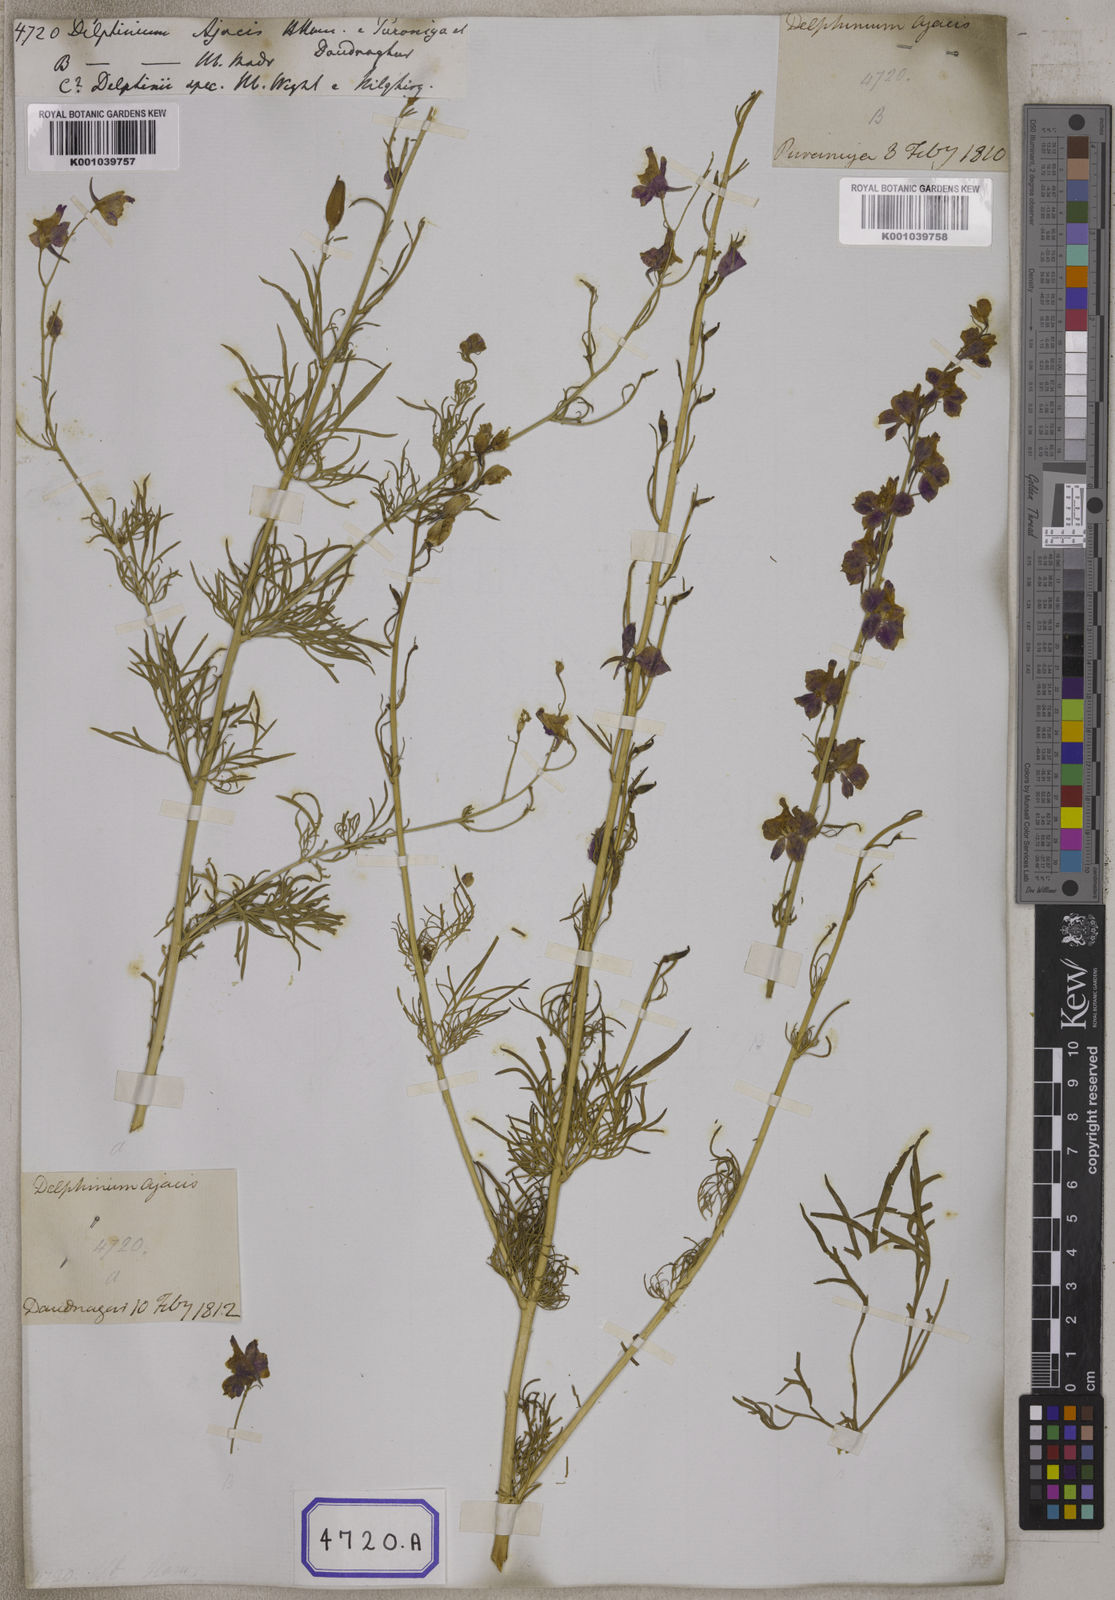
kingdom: Plantae
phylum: Tracheophyta
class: Magnoliopsida
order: Ranunculales
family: Ranunculaceae
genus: Delphinium
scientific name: Delphinium ajacis
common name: Doubtful knight's-spur
